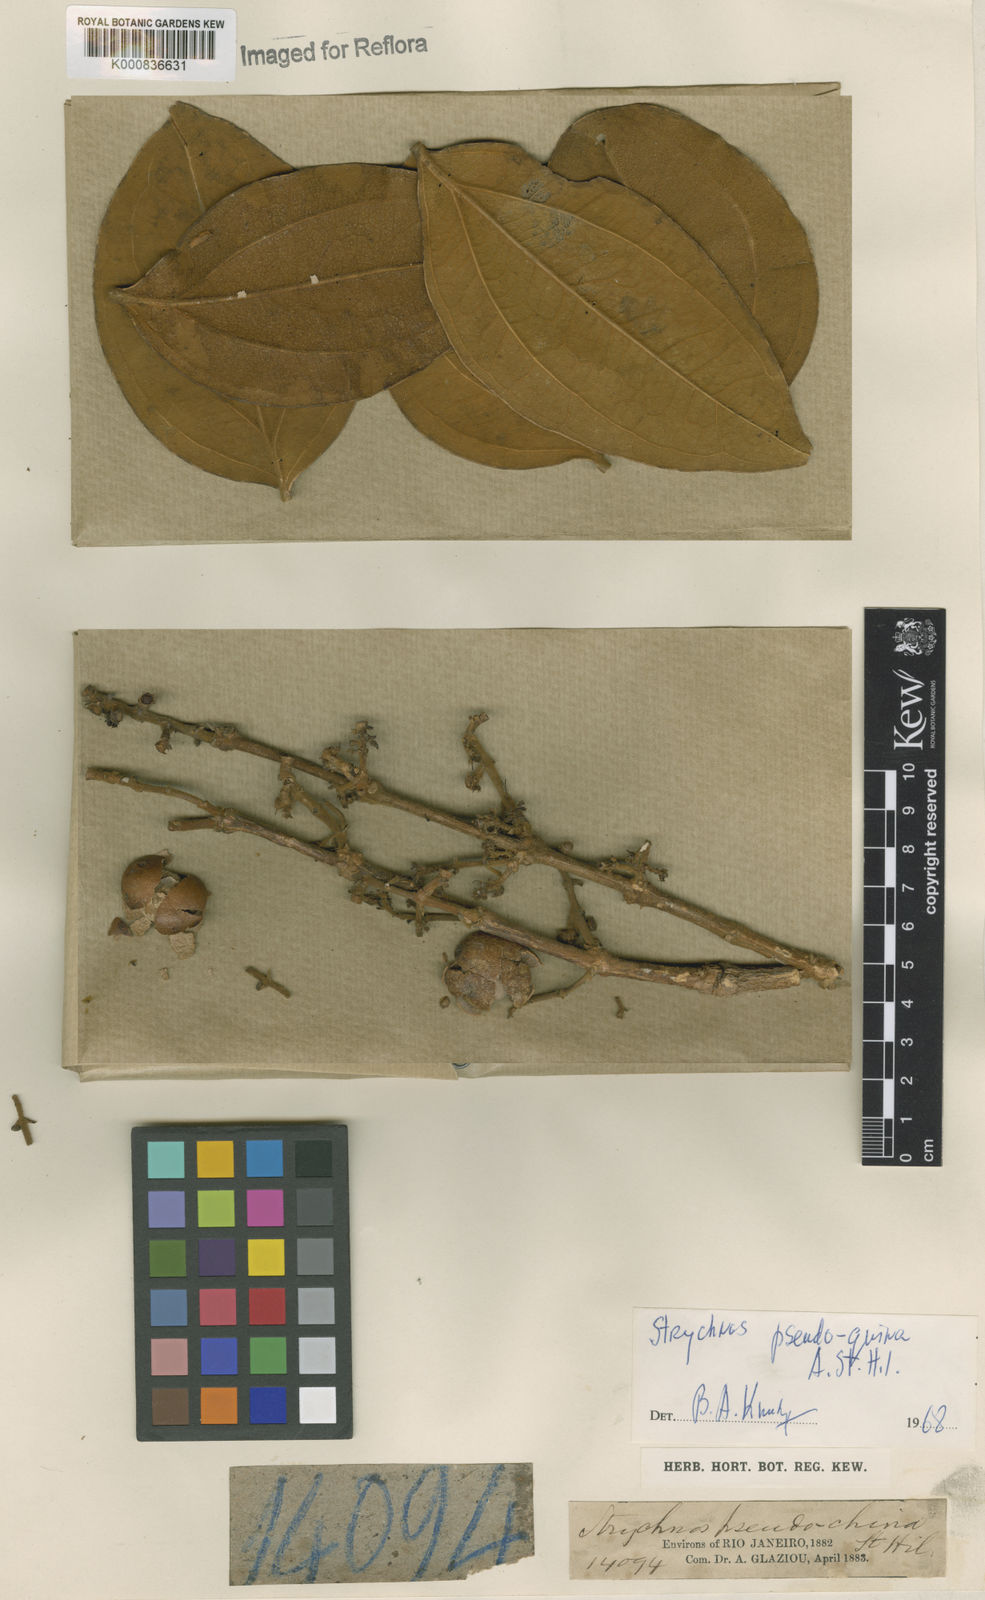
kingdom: Plantae
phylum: Tracheophyta
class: Magnoliopsida
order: Gentianales
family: Loganiaceae
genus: Strychnos
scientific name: Strychnos pseudoquina
